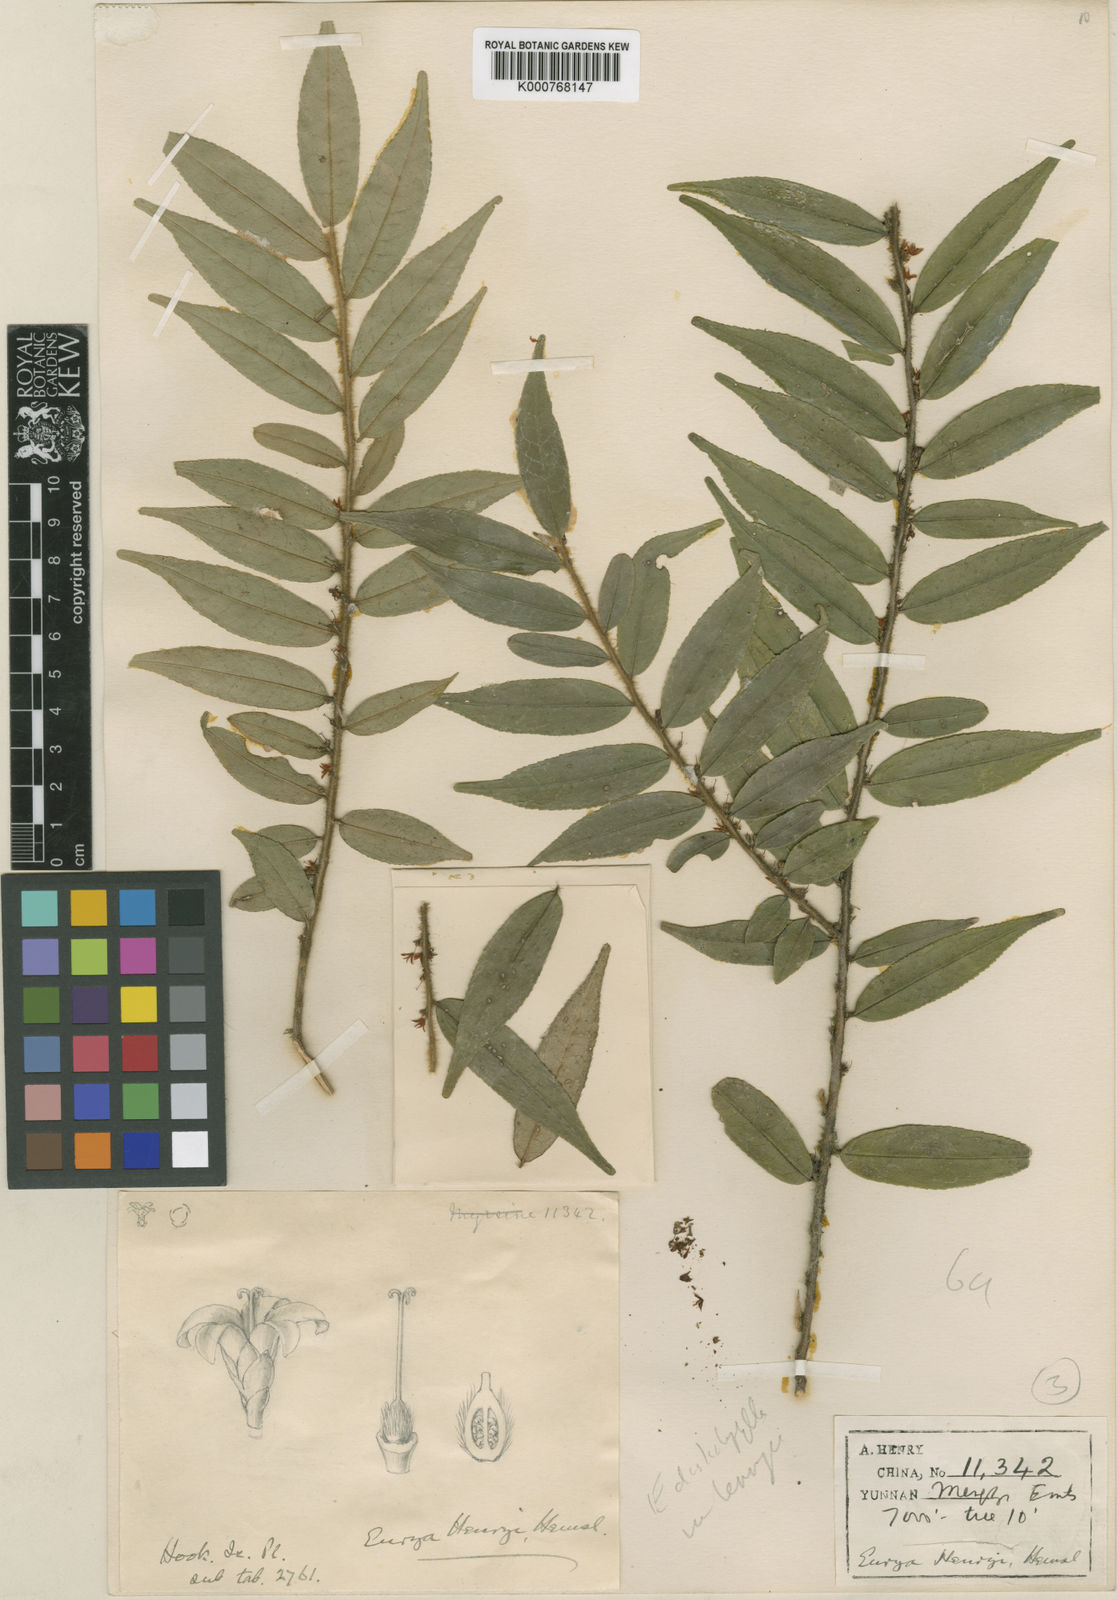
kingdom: Plantae
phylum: Tracheophyta
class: Magnoliopsida
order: Ericales
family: Pentaphylacaceae
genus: Eurya
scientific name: Eurya distichophylla
